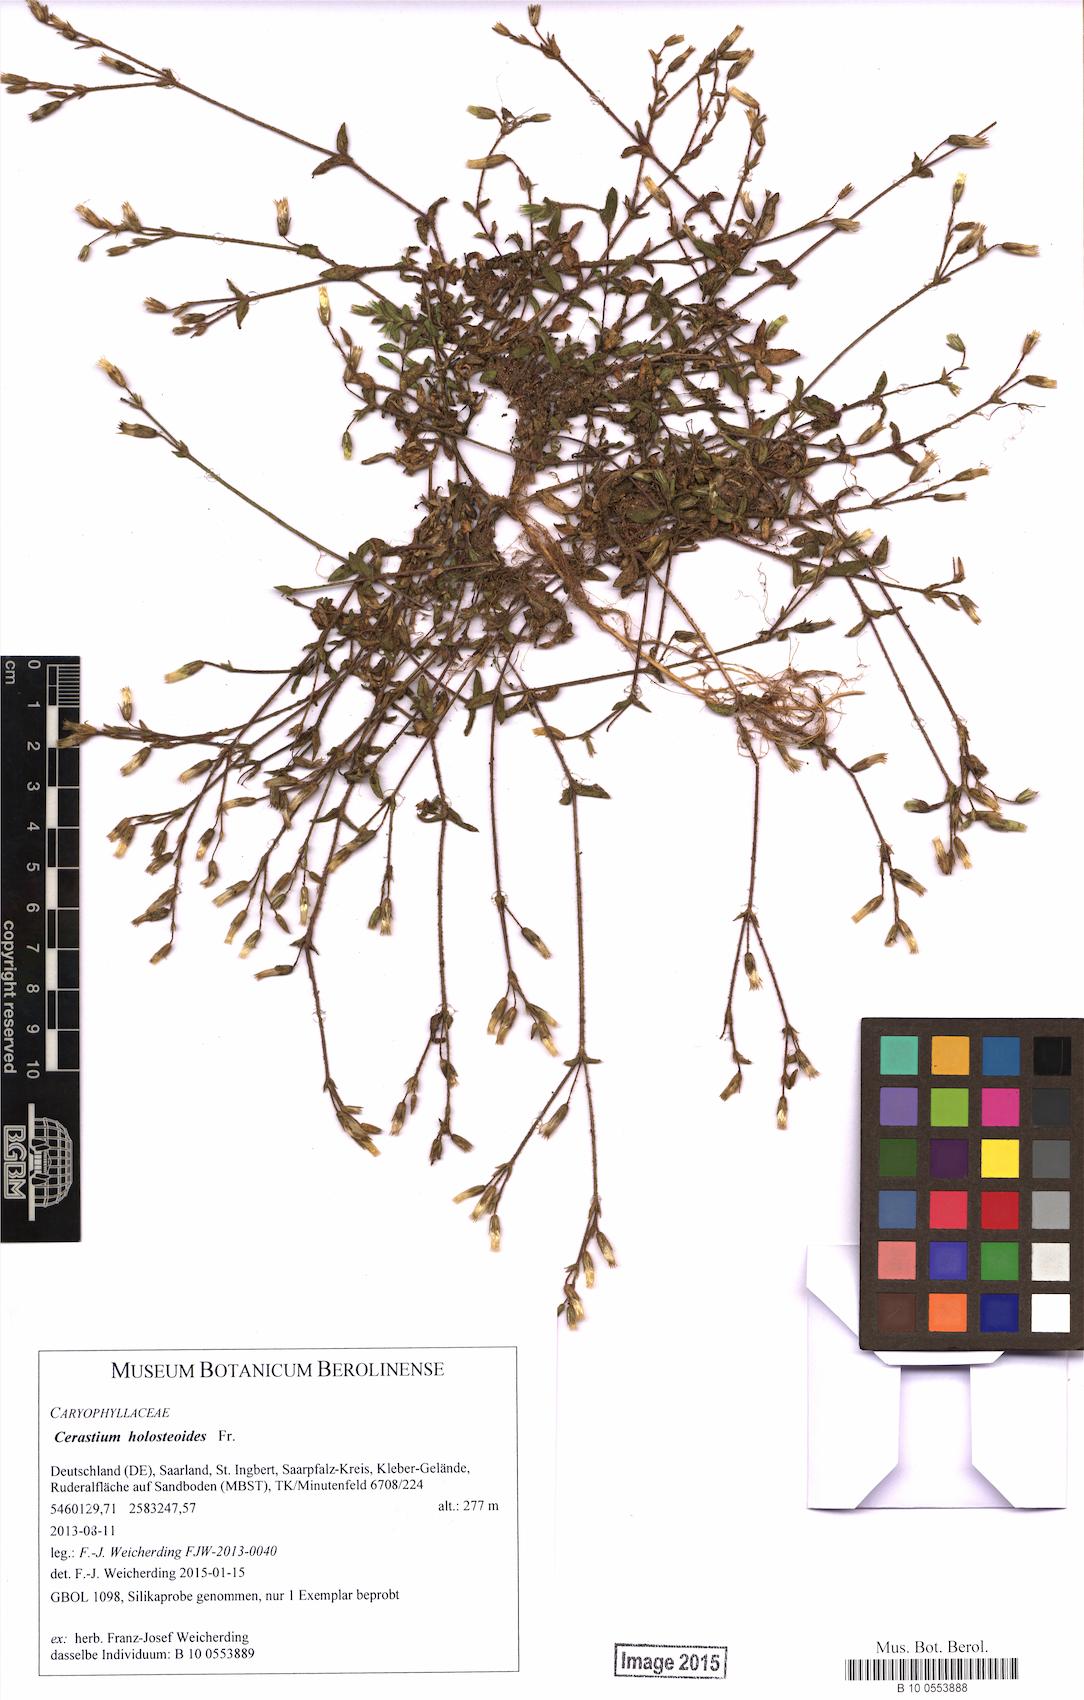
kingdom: Plantae
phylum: Tracheophyta
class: Magnoliopsida
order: Caryophyllales
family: Caryophyllaceae
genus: Cerastium
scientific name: Cerastium holosteoides
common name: Big chickweed
